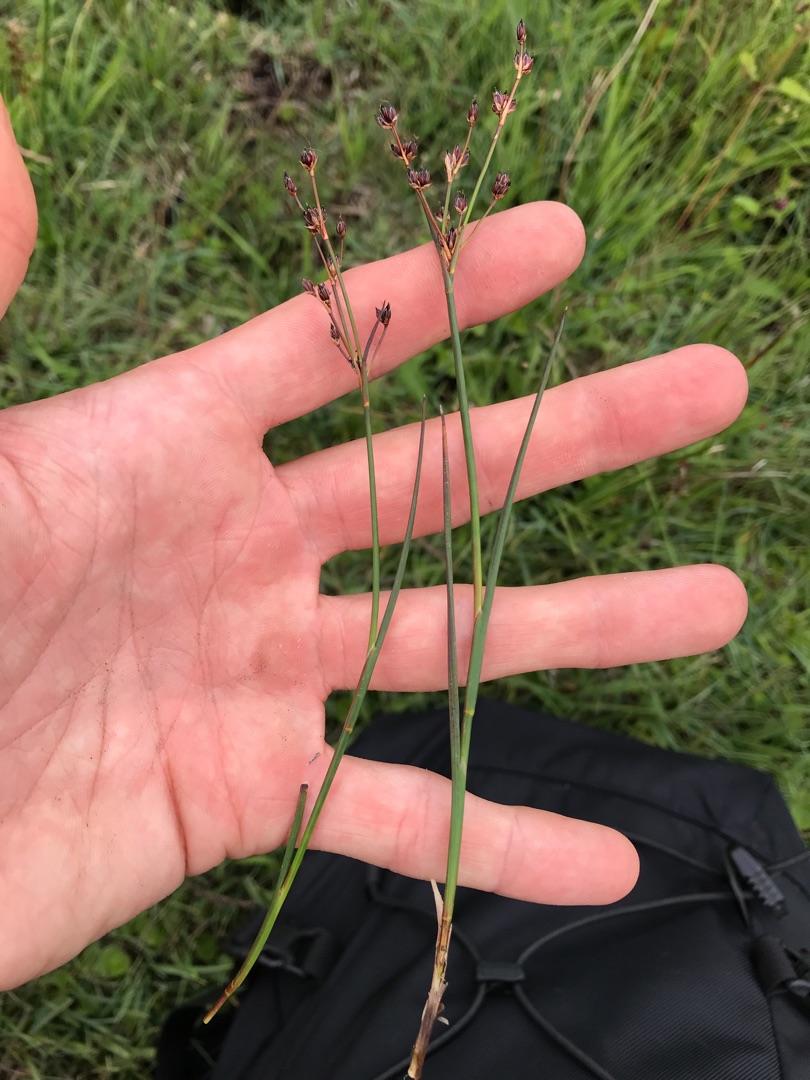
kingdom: Plantae
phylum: Tracheophyta
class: Liliopsida
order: Poales
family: Juncaceae
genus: Juncus
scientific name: Juncus articulatus
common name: Glanskapslet siv
